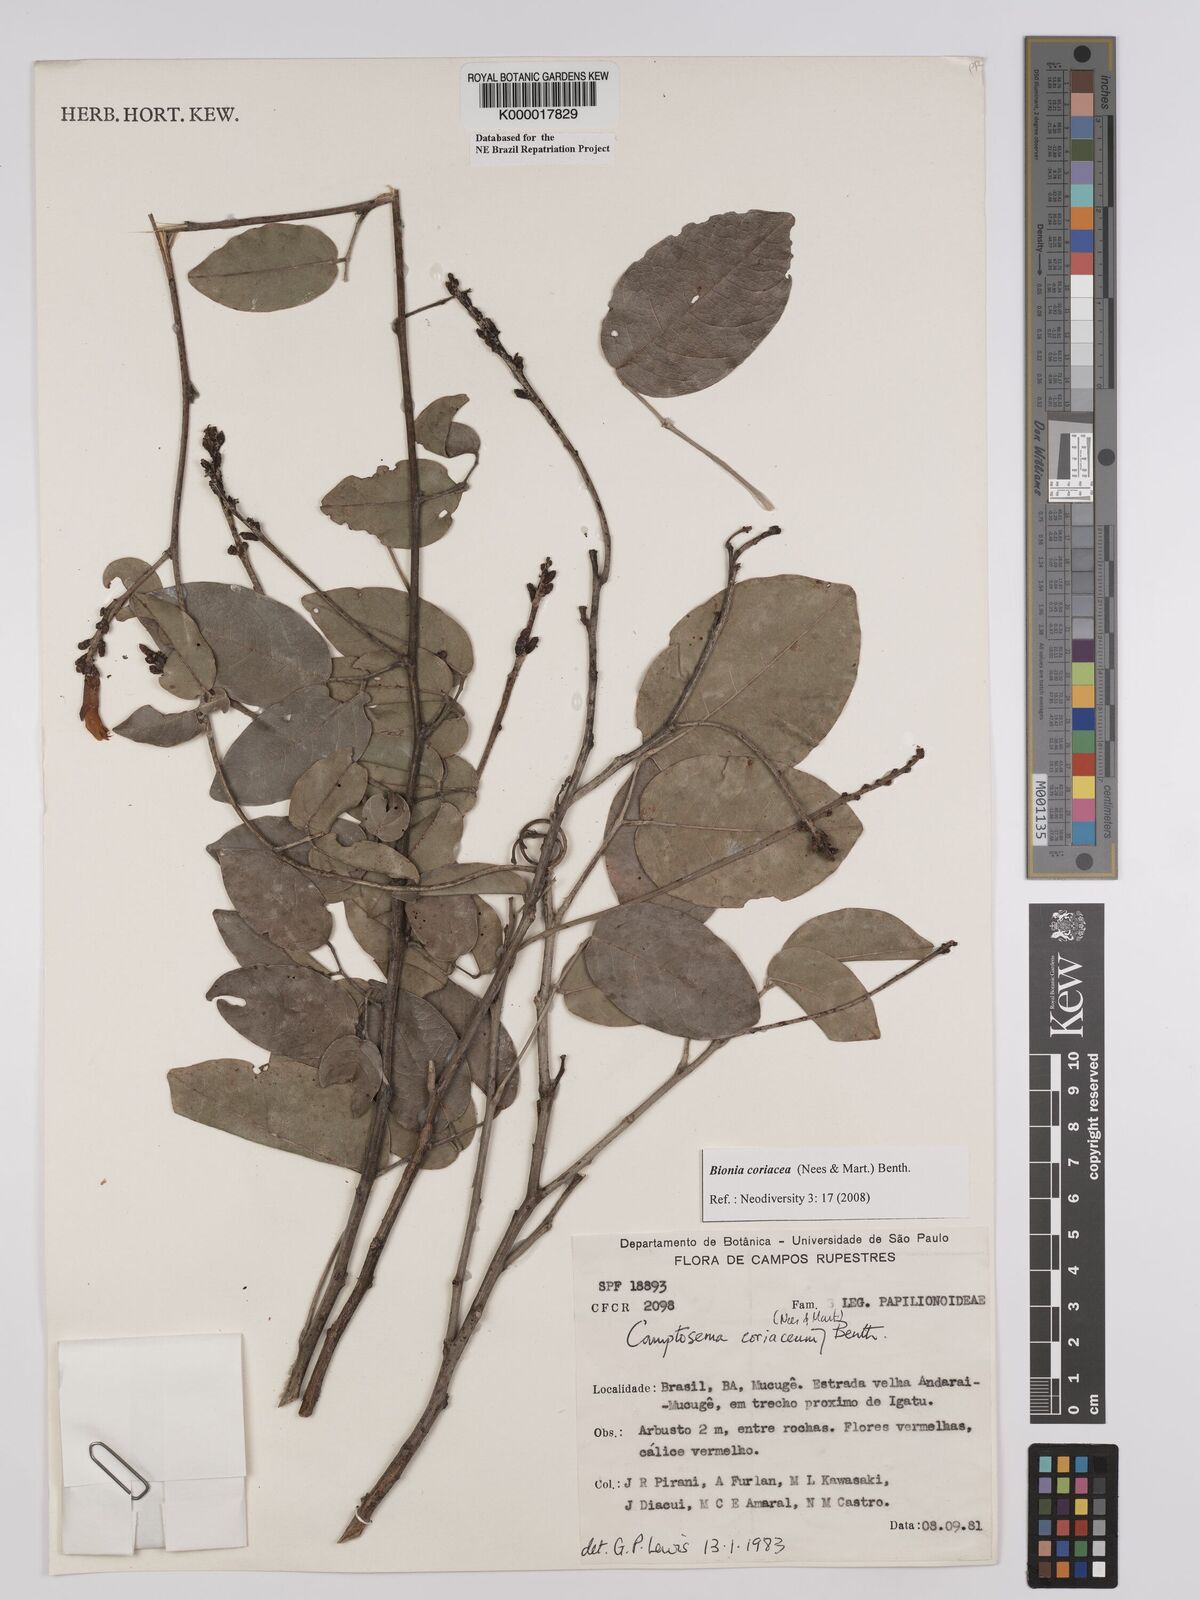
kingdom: Plantae
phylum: Tracheophyta
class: Magnoliopsida
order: Fabales
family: Fabaceae
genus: Camptosema
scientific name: Camptosema coriaceum
